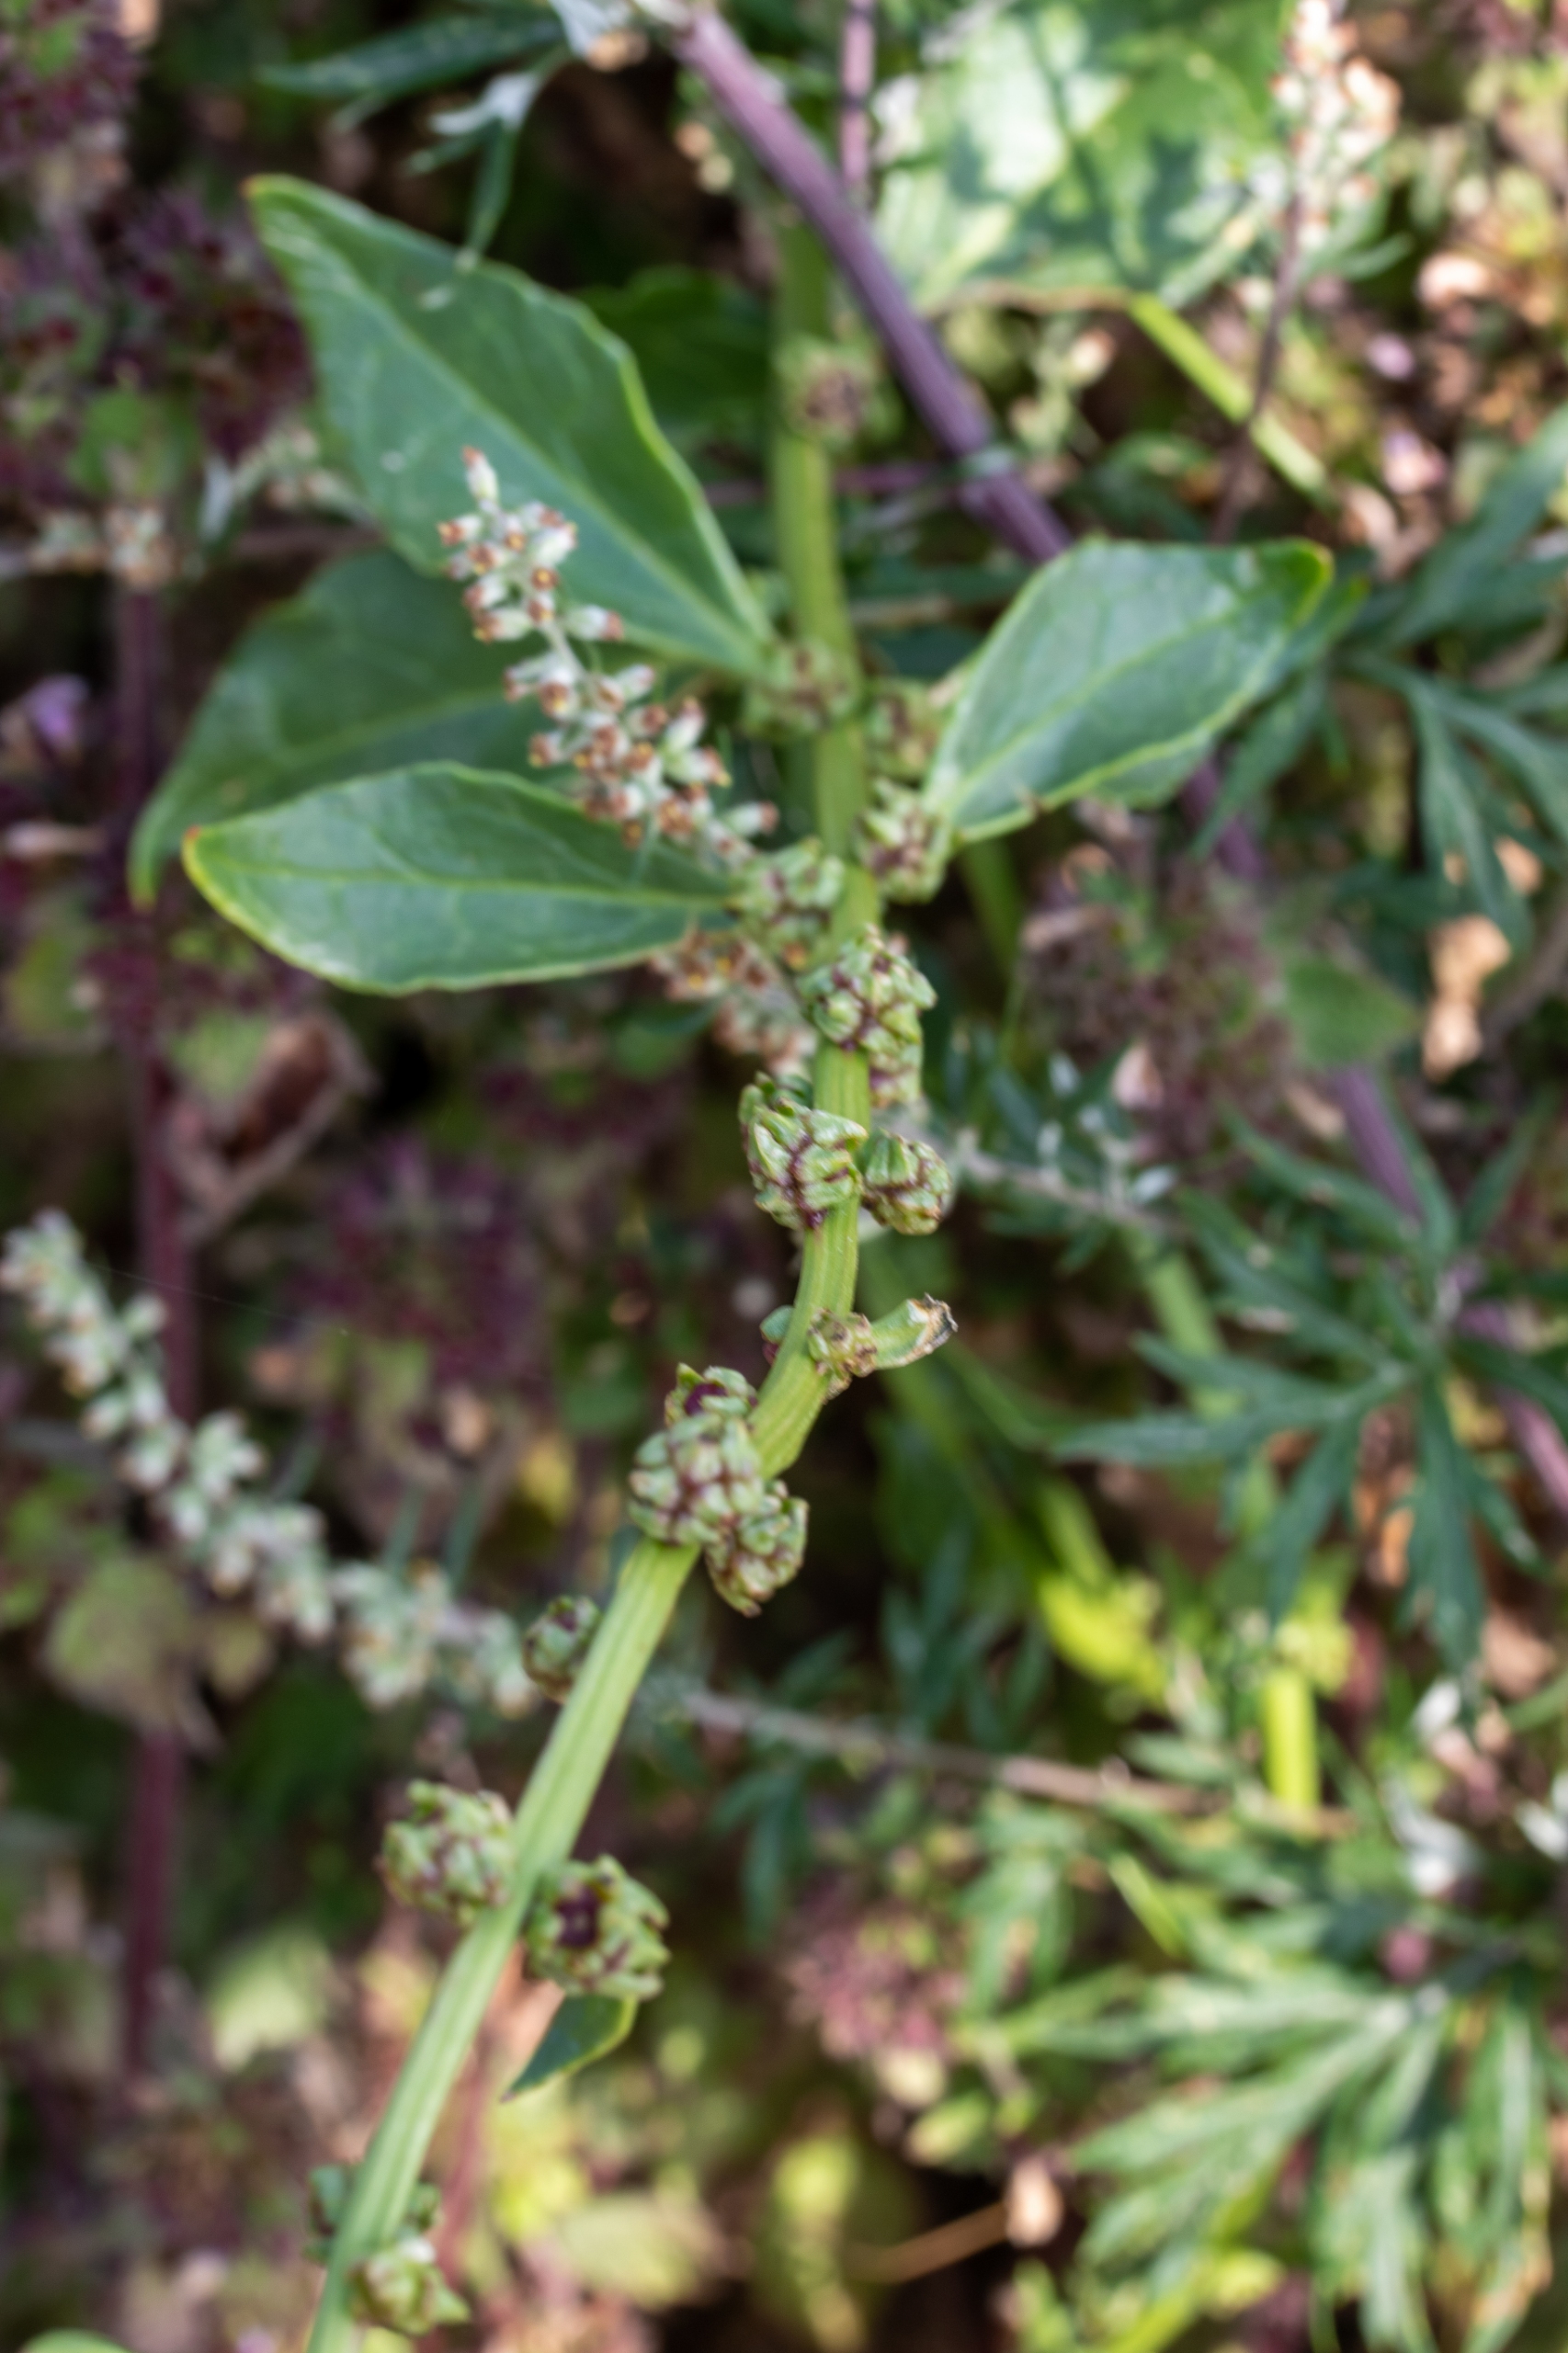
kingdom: Plantae
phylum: Tracheophyta
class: Magnoliopsida
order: Caryophyllales
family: Amaranthaceae
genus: Beta
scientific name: Beta maritima
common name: Strand-bede
